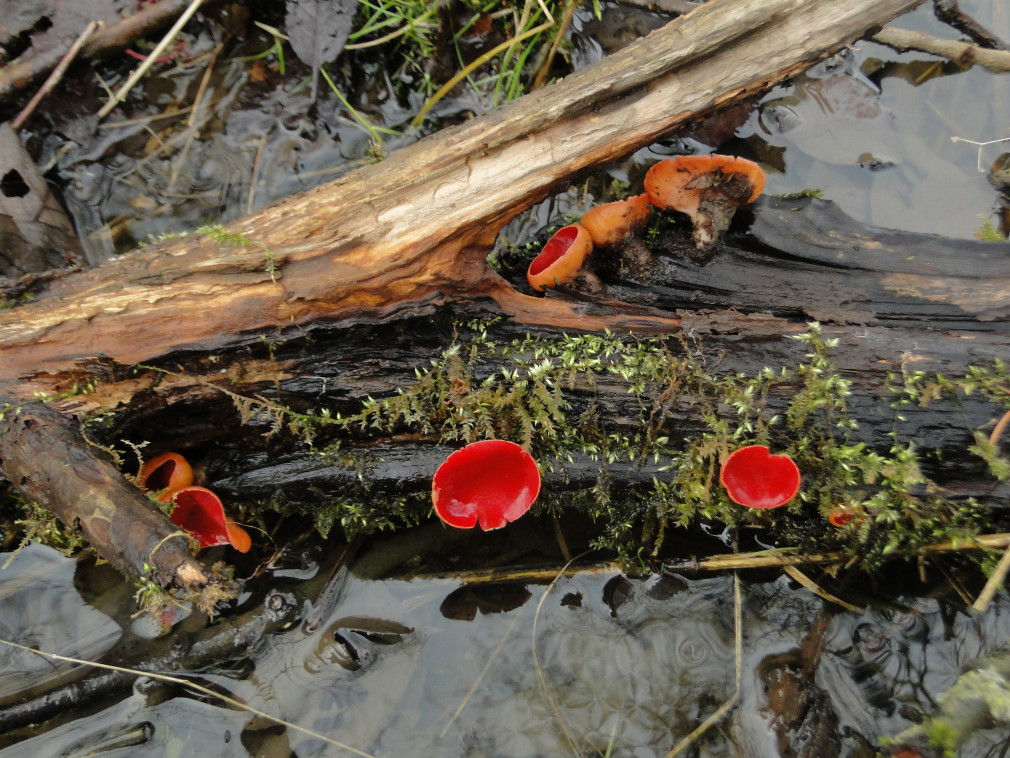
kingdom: Fungi
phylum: Ascomycota
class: Pezizomycetes
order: Pezizales
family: Sarcoscyphaceae
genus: Sarcoscypha
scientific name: Sarcoscypha coccinea
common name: skarlagen-pragtbæger
